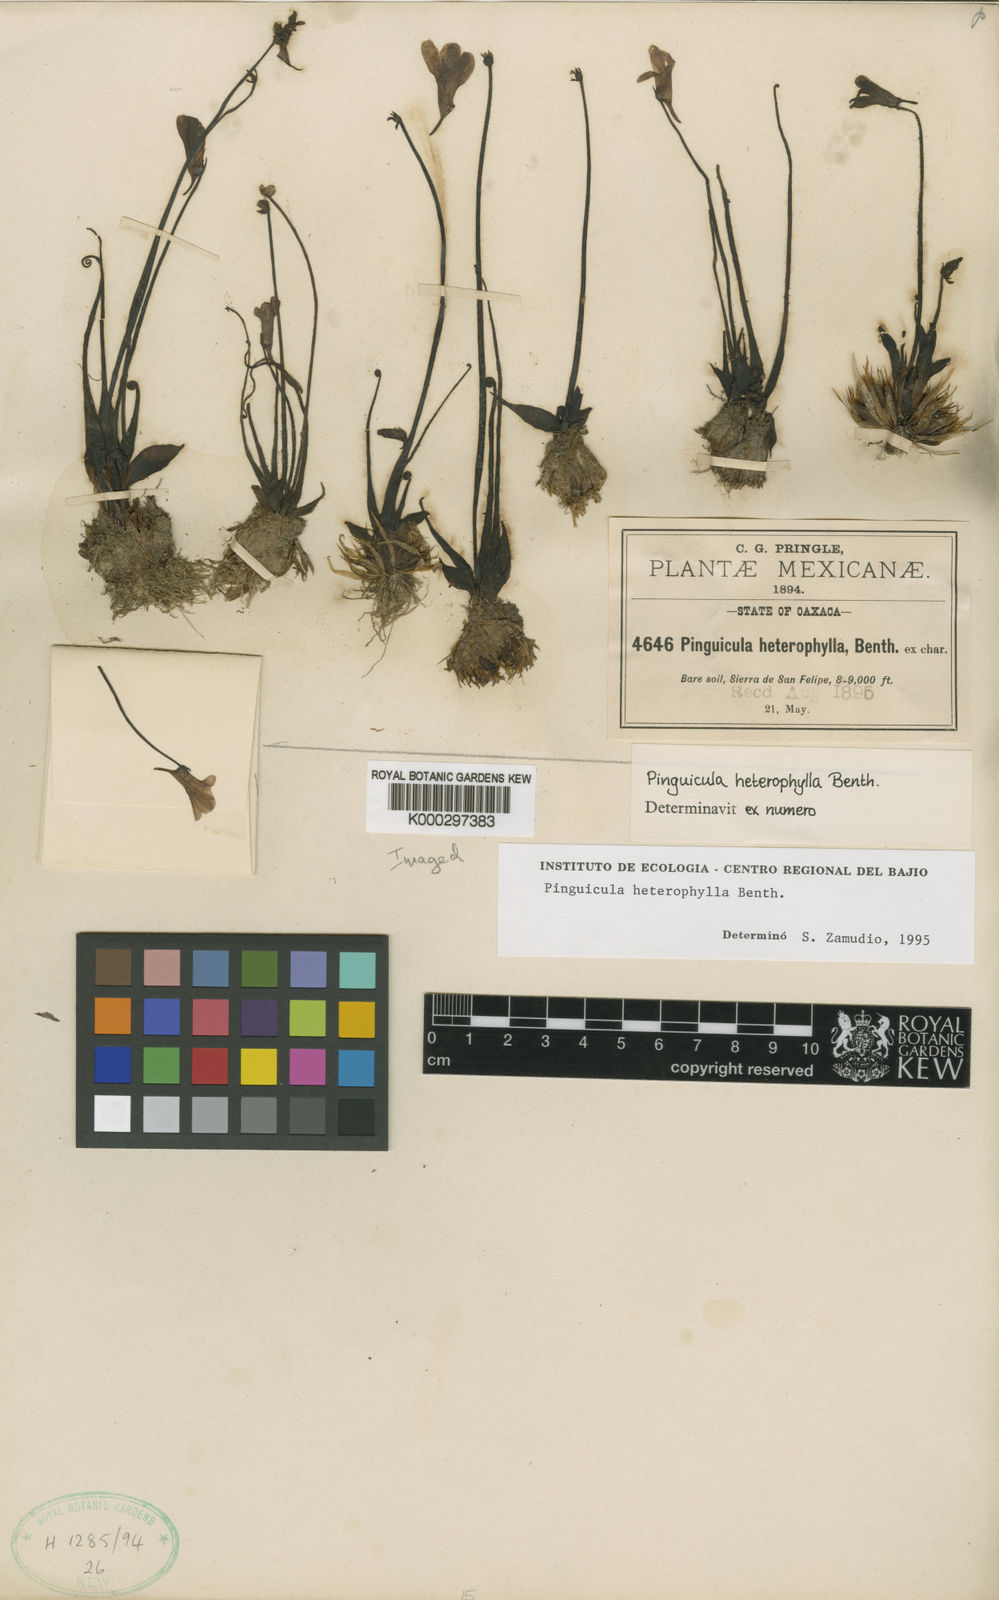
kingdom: Plantae
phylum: Tracheophyta
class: Magnoliopsida
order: Lamiales
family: Lentibulariaceae
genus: Pinguicula
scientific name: Pinguicula heterophylla
